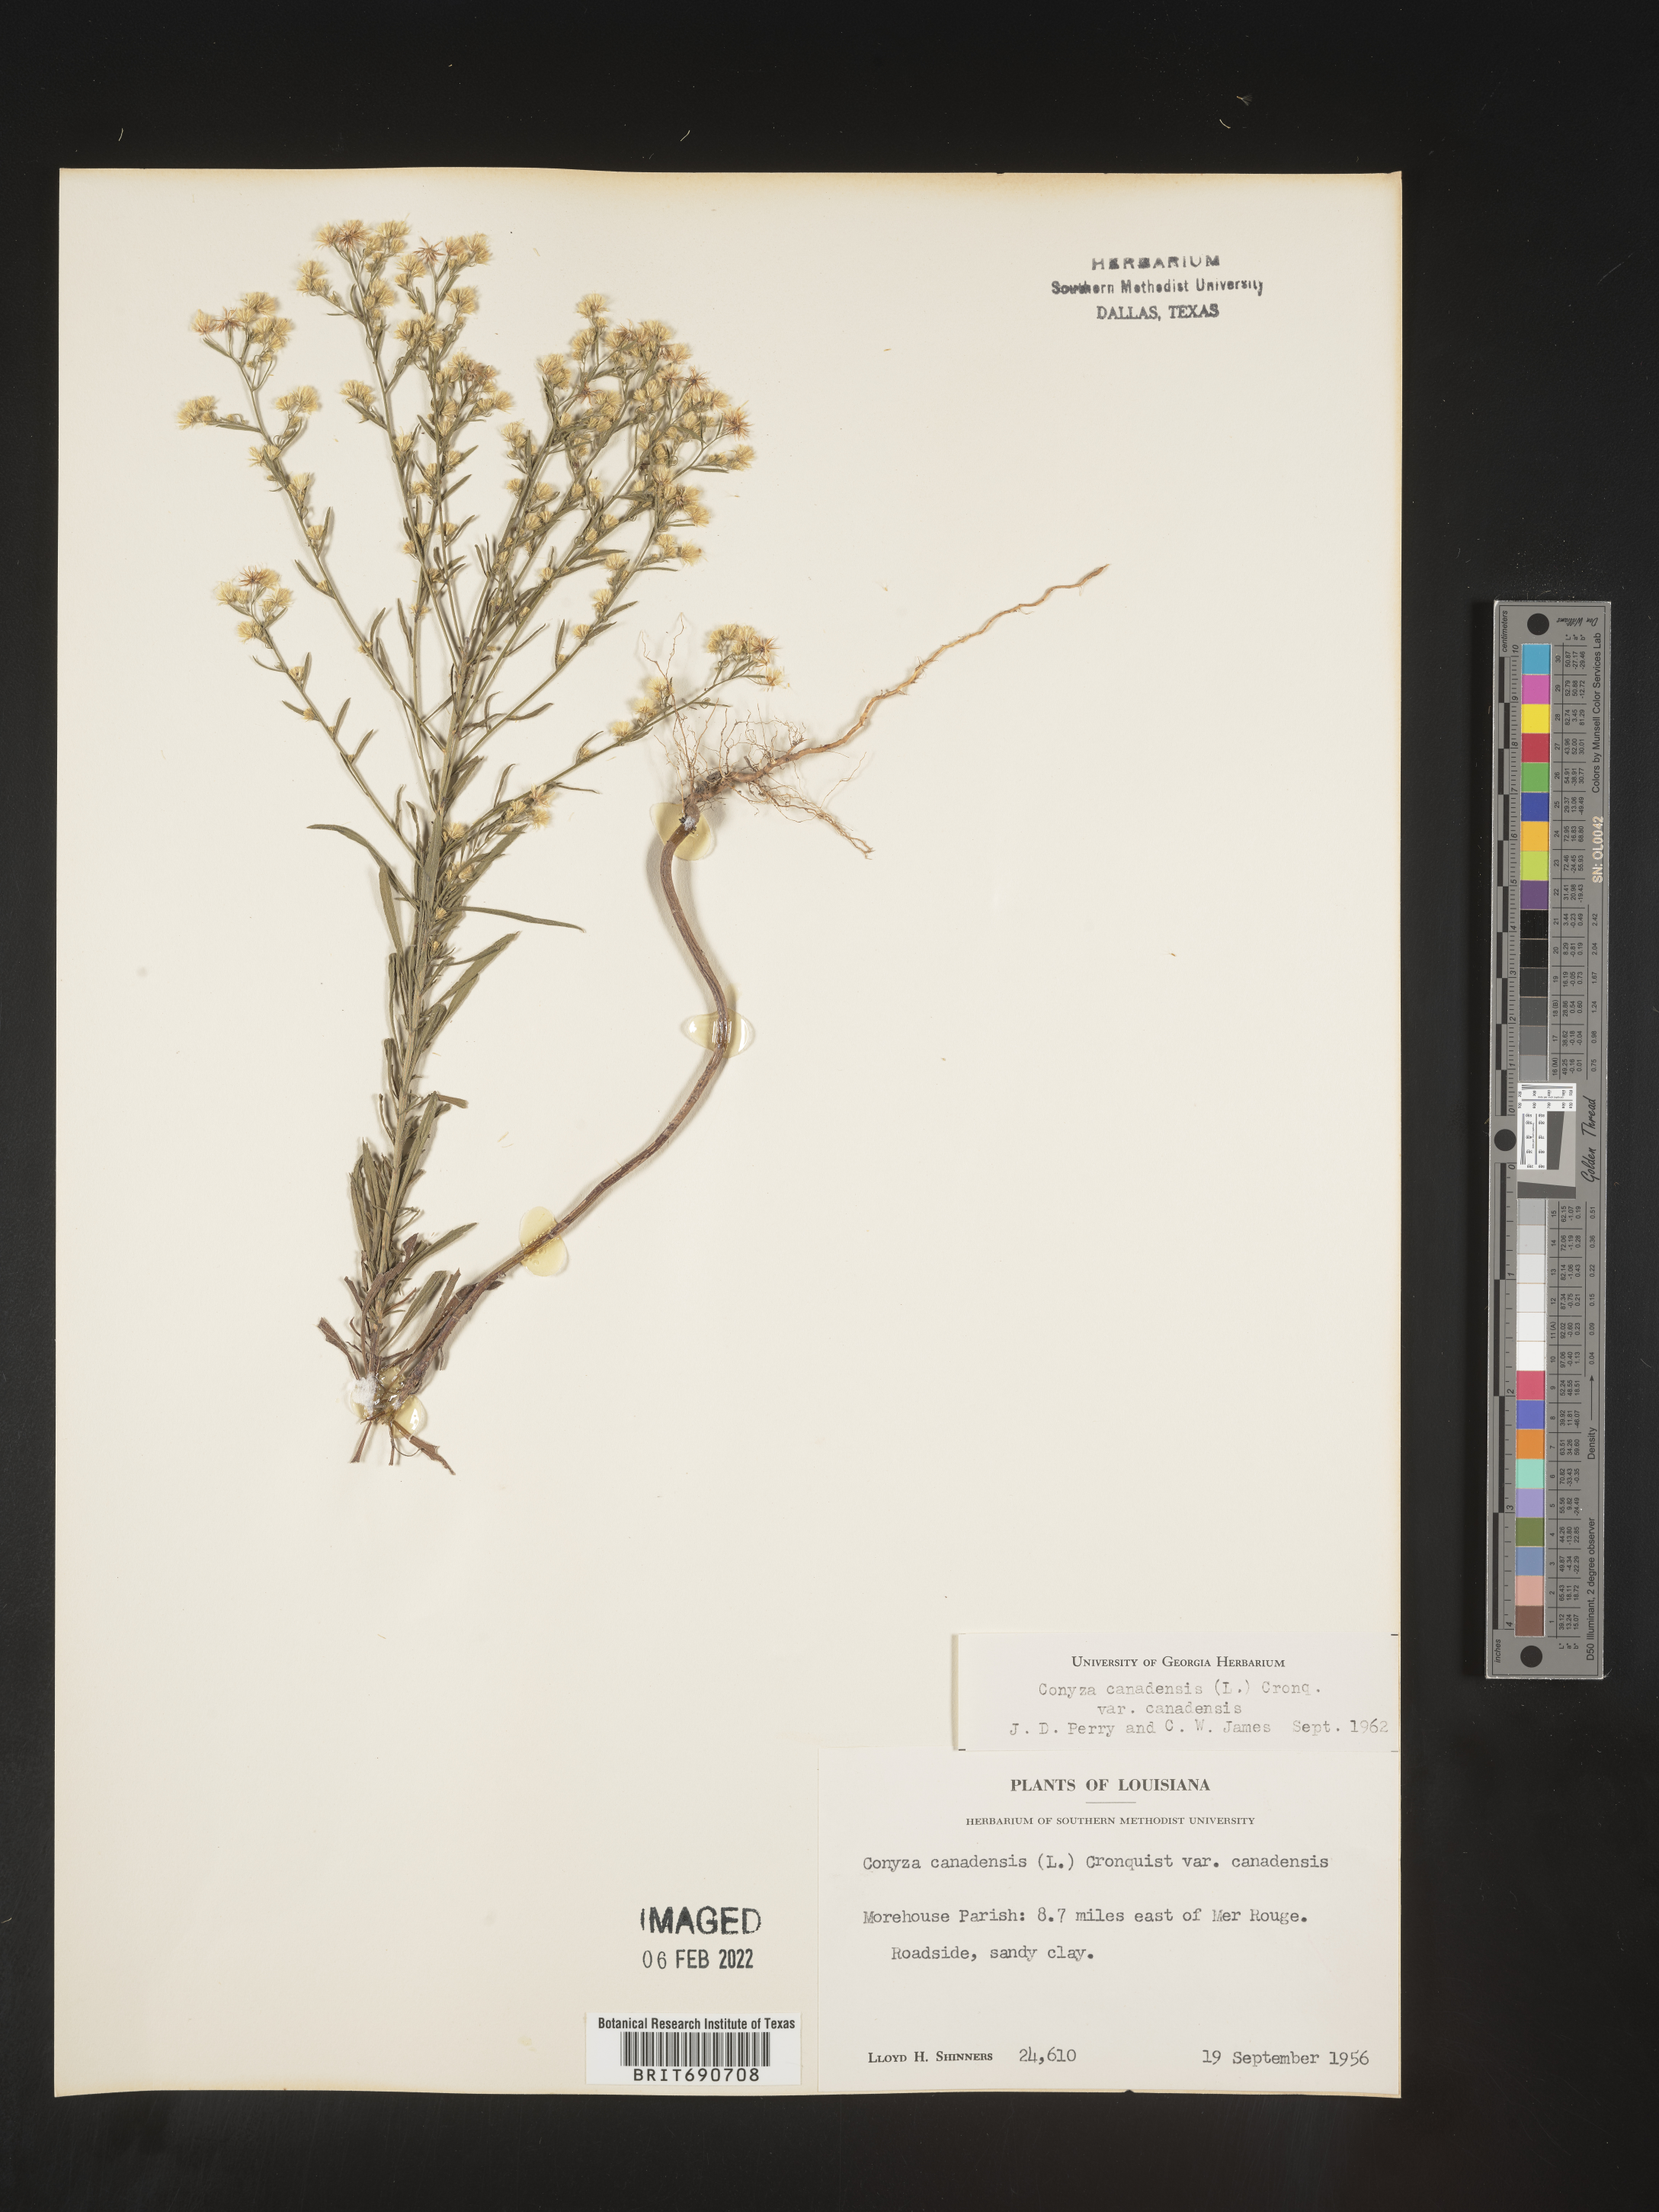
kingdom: Plantae
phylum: Tracheophyta
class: Magnoliopsida
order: Asterales
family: Asteraceae
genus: Erigeron
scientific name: Erigeron canadensis
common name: Canadian fleabane
